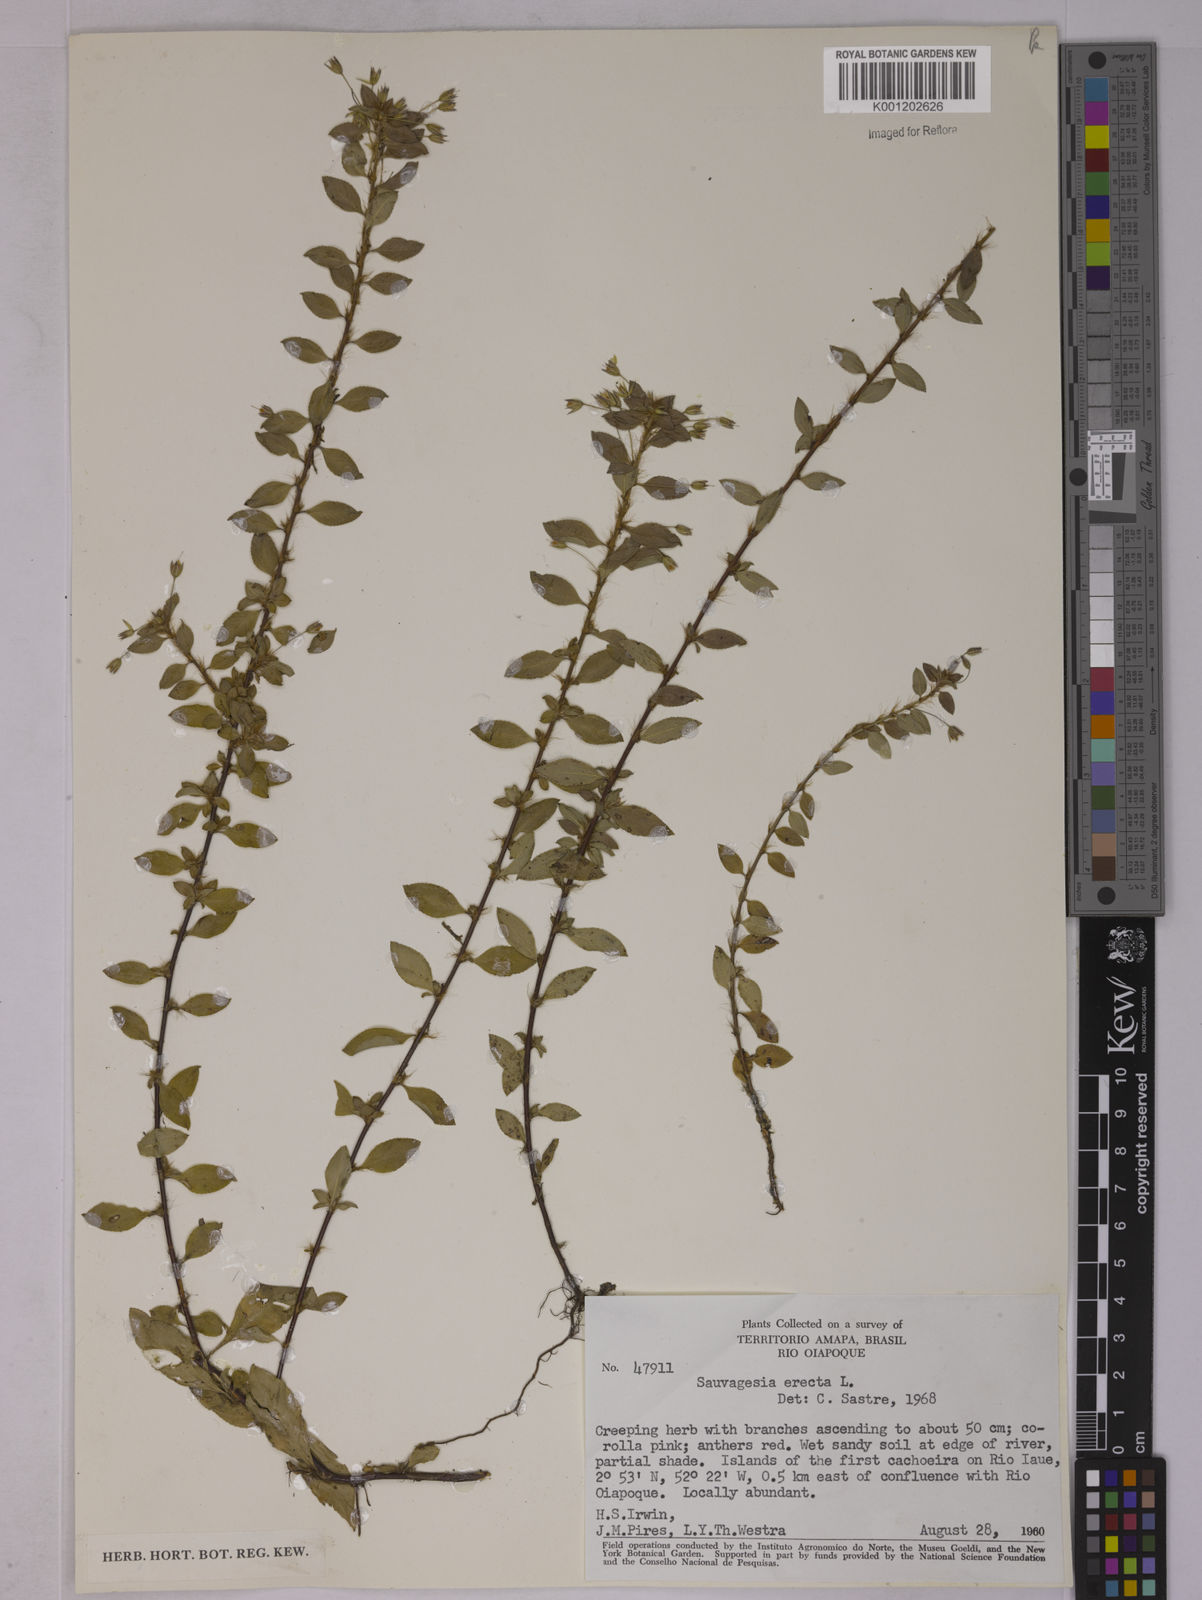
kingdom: Plantae
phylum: Tracheophyta
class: Magnoliopsida
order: Malpighiales
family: Ochnaceae
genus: Sauvagesia
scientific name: Sauvagesia erecta
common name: Creole tea
